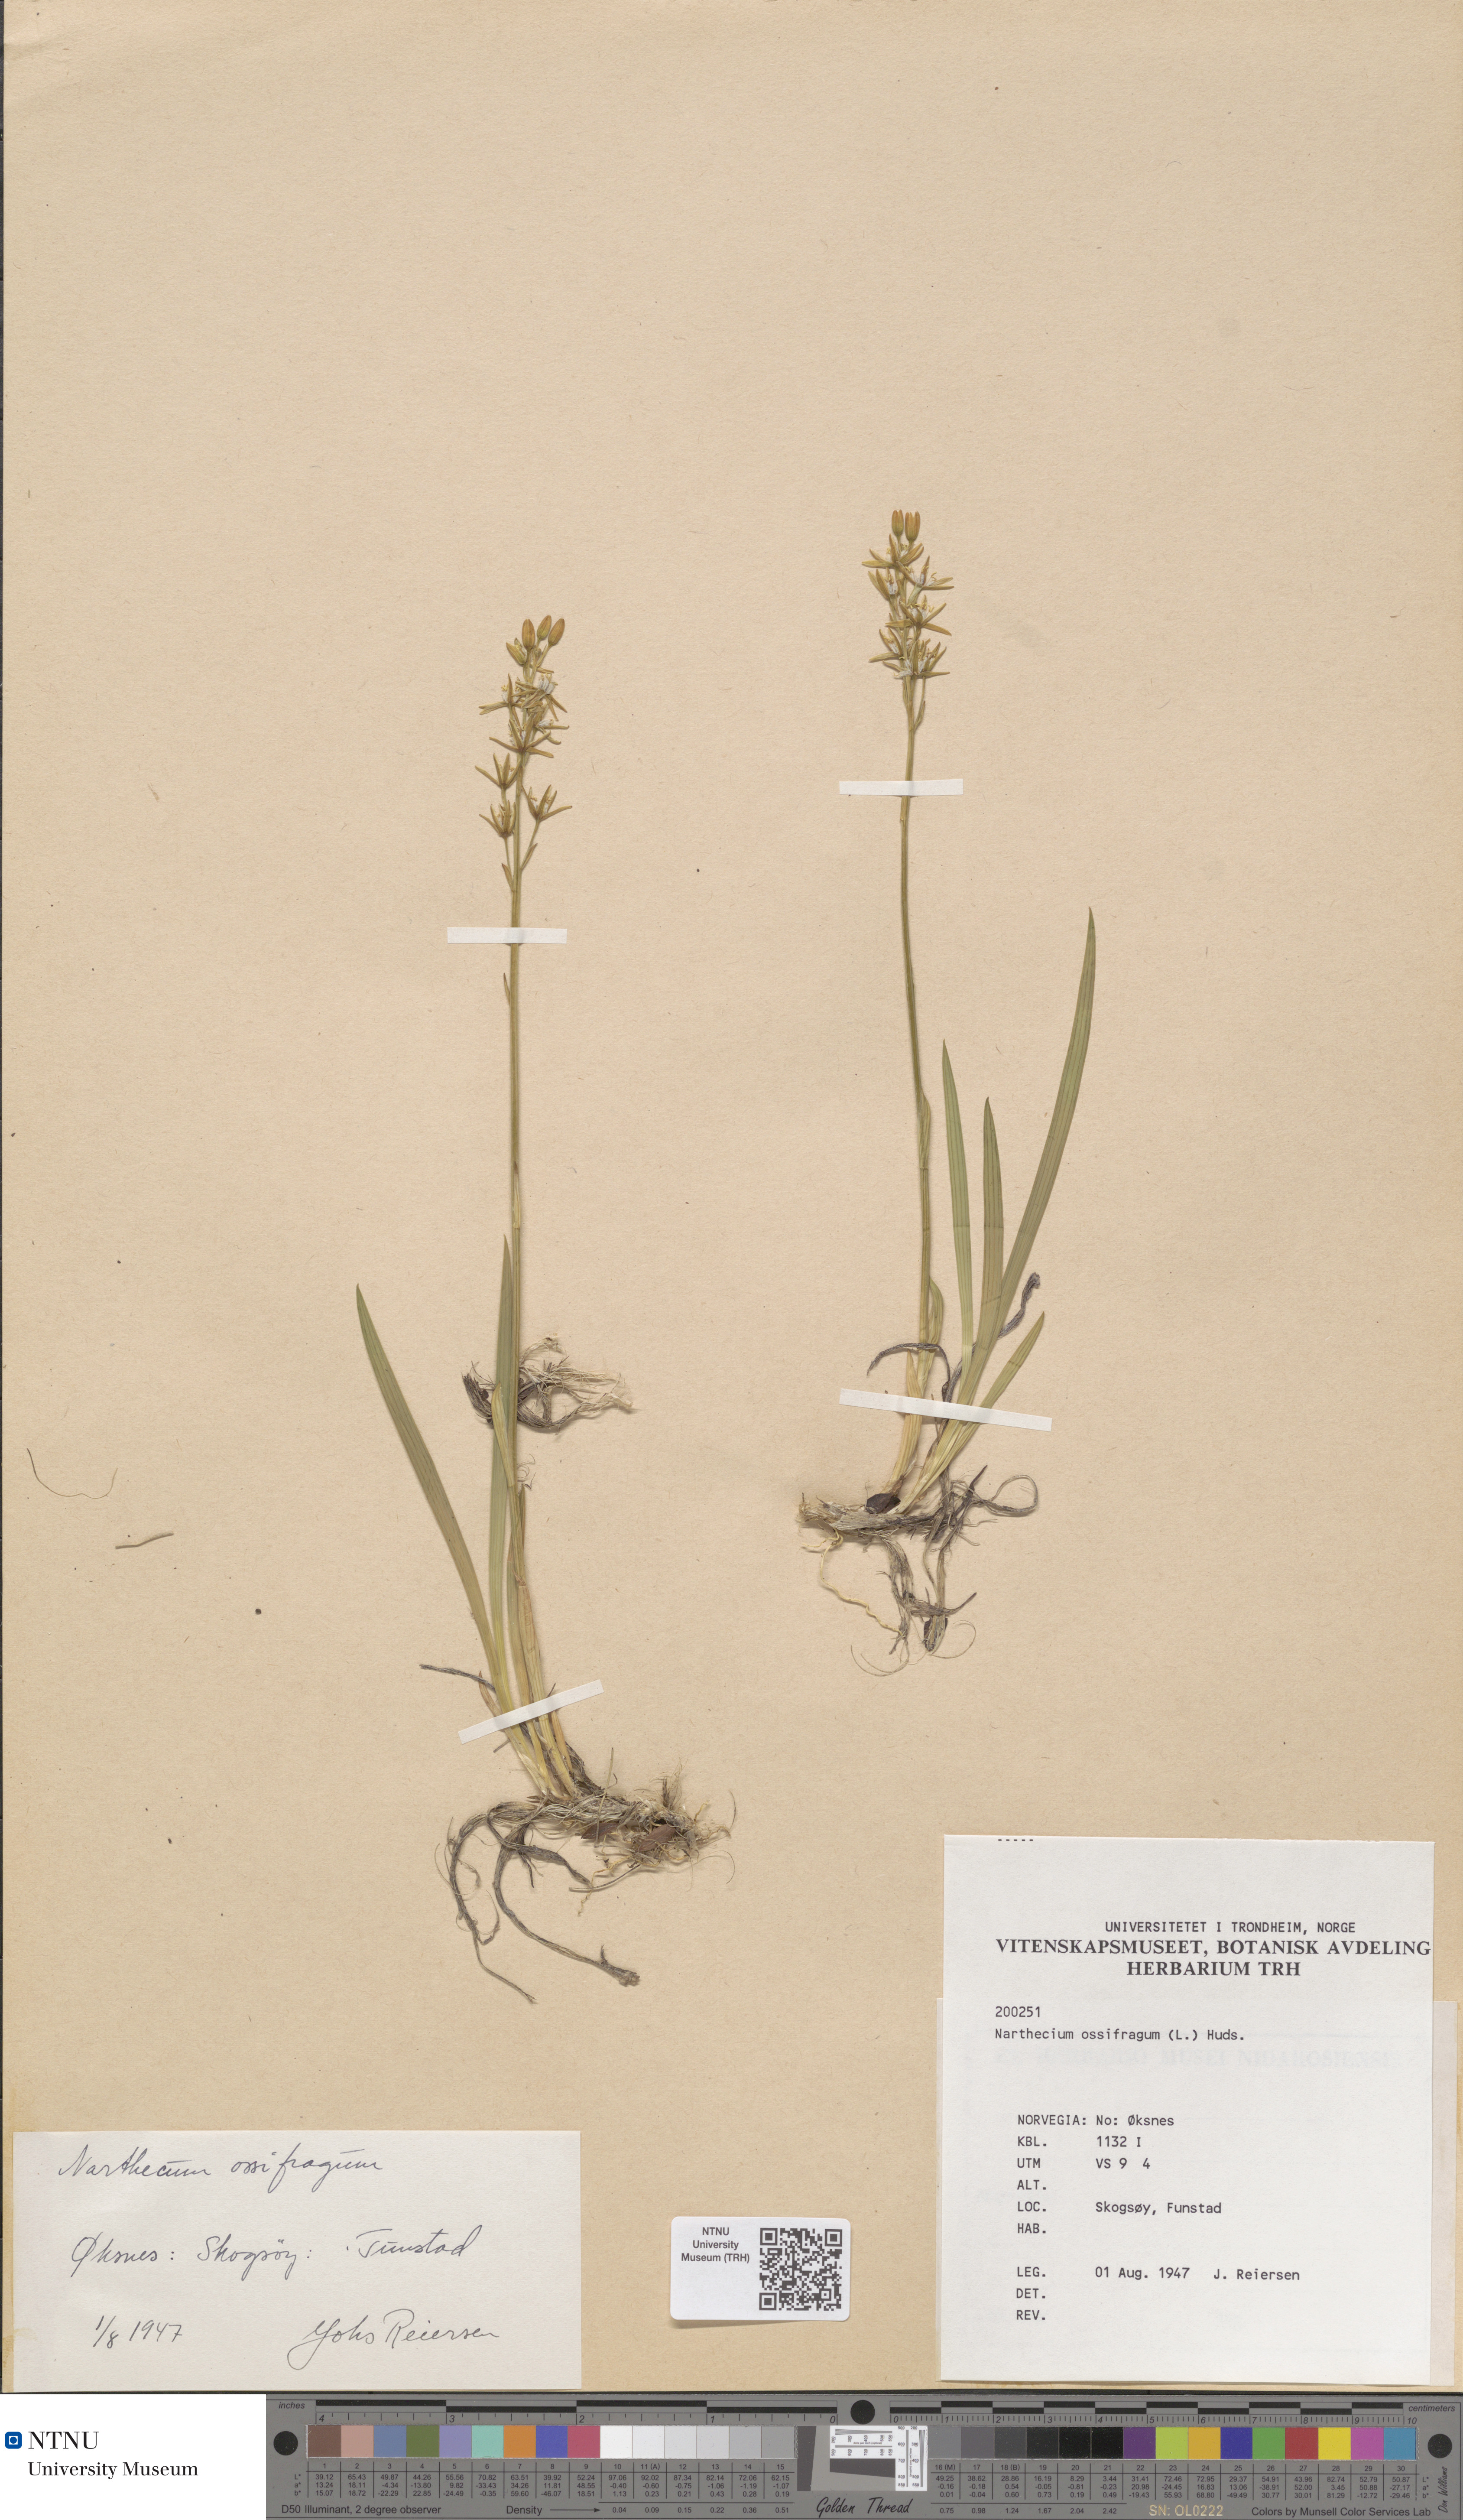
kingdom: Plantae
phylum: Tracheophyta
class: Liliopsida
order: Dioscoreales
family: Nartheciaceae
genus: Narthecium
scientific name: Narthecium ossifragum
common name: Bog asphodel
